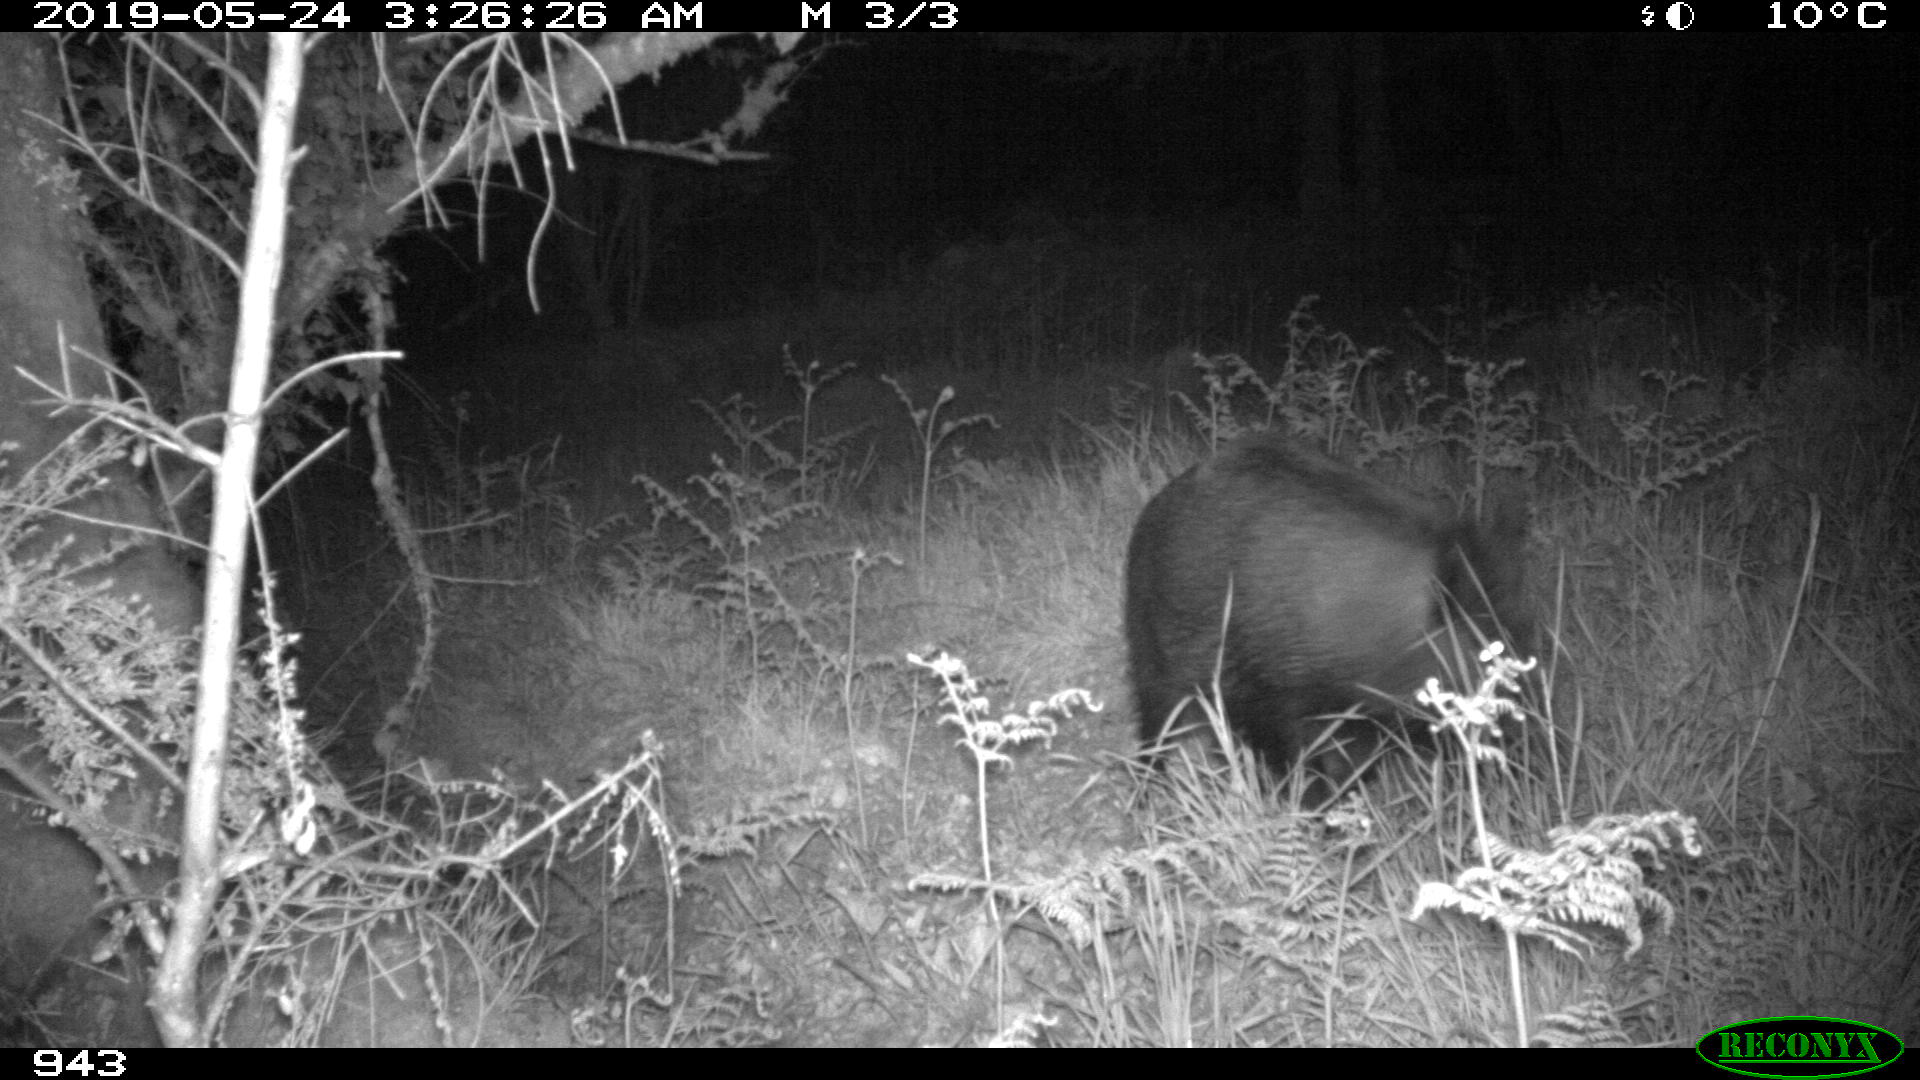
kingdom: Animalia
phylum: Chordata
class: Mammalia
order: Artiodactyla
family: Suidae
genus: Sus
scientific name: Sus scrofa
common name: Wild boar
